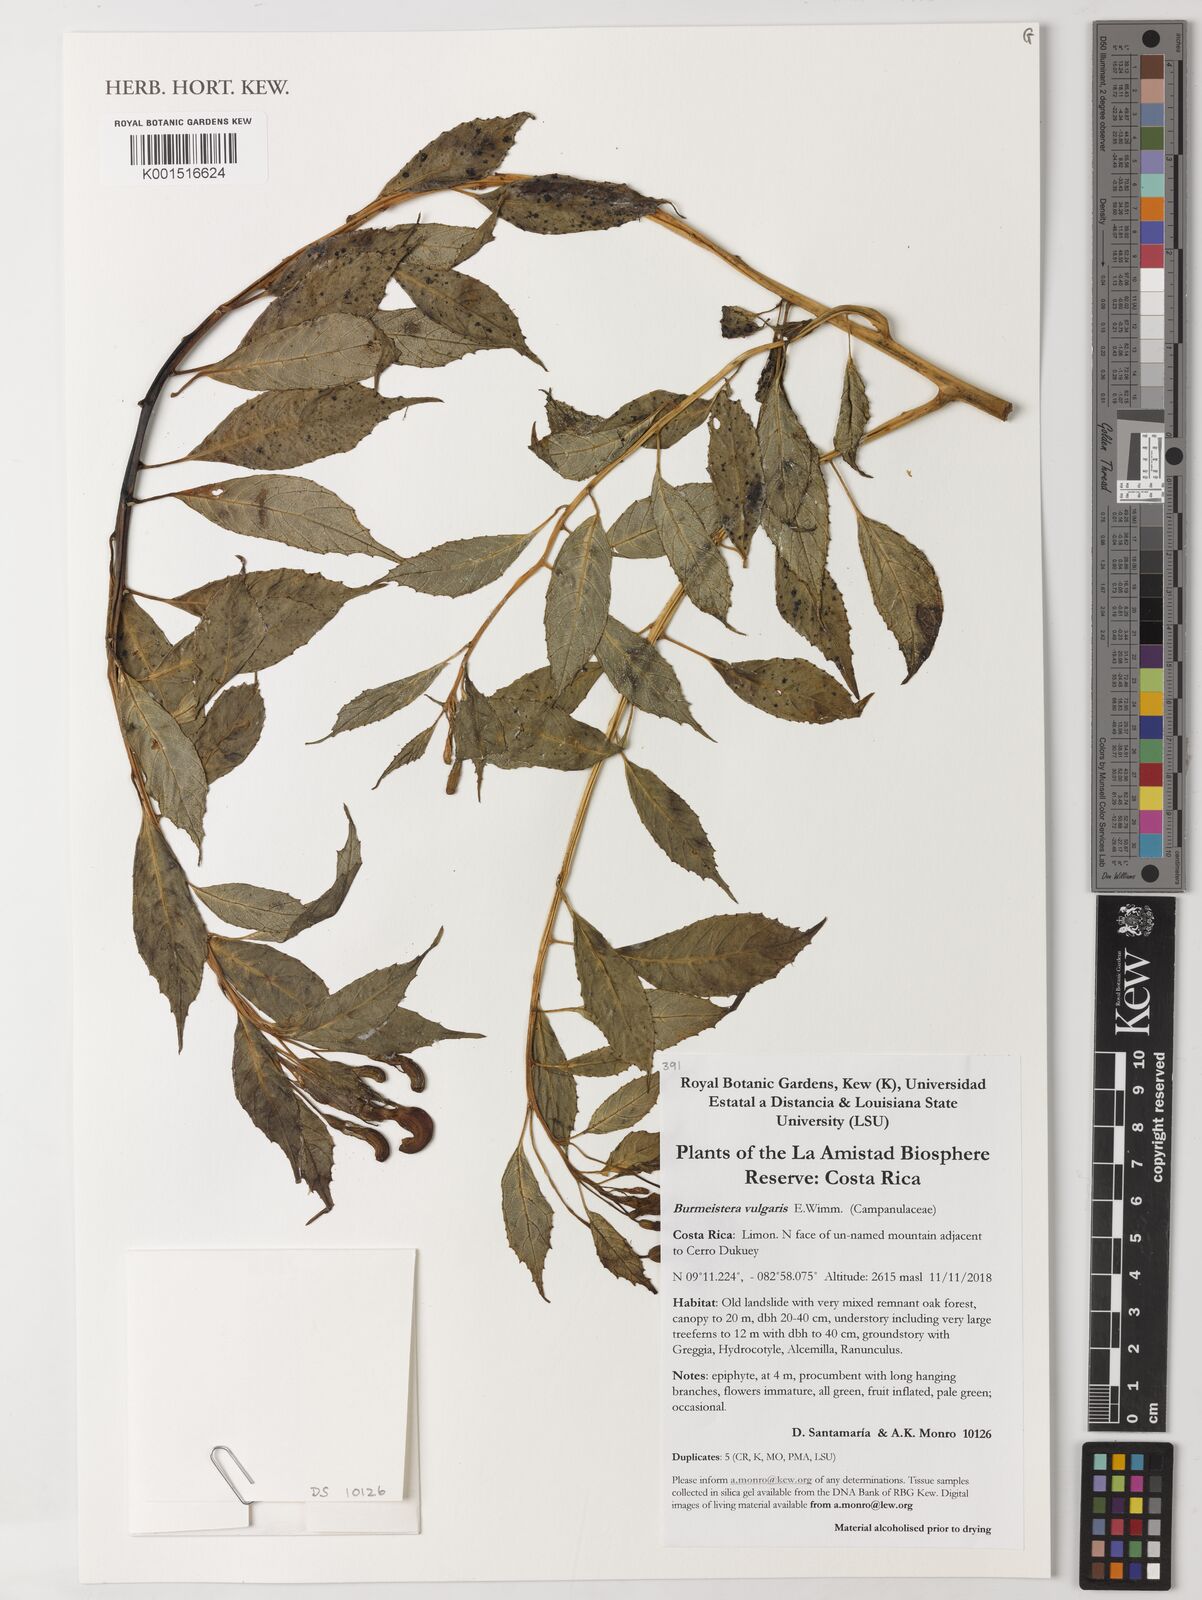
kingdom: Plantae
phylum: Tracheophyta
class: Magnoliopsida
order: Asterales
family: Campanulaceae
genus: Burmeistera
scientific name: Burmeistera vulgaris
